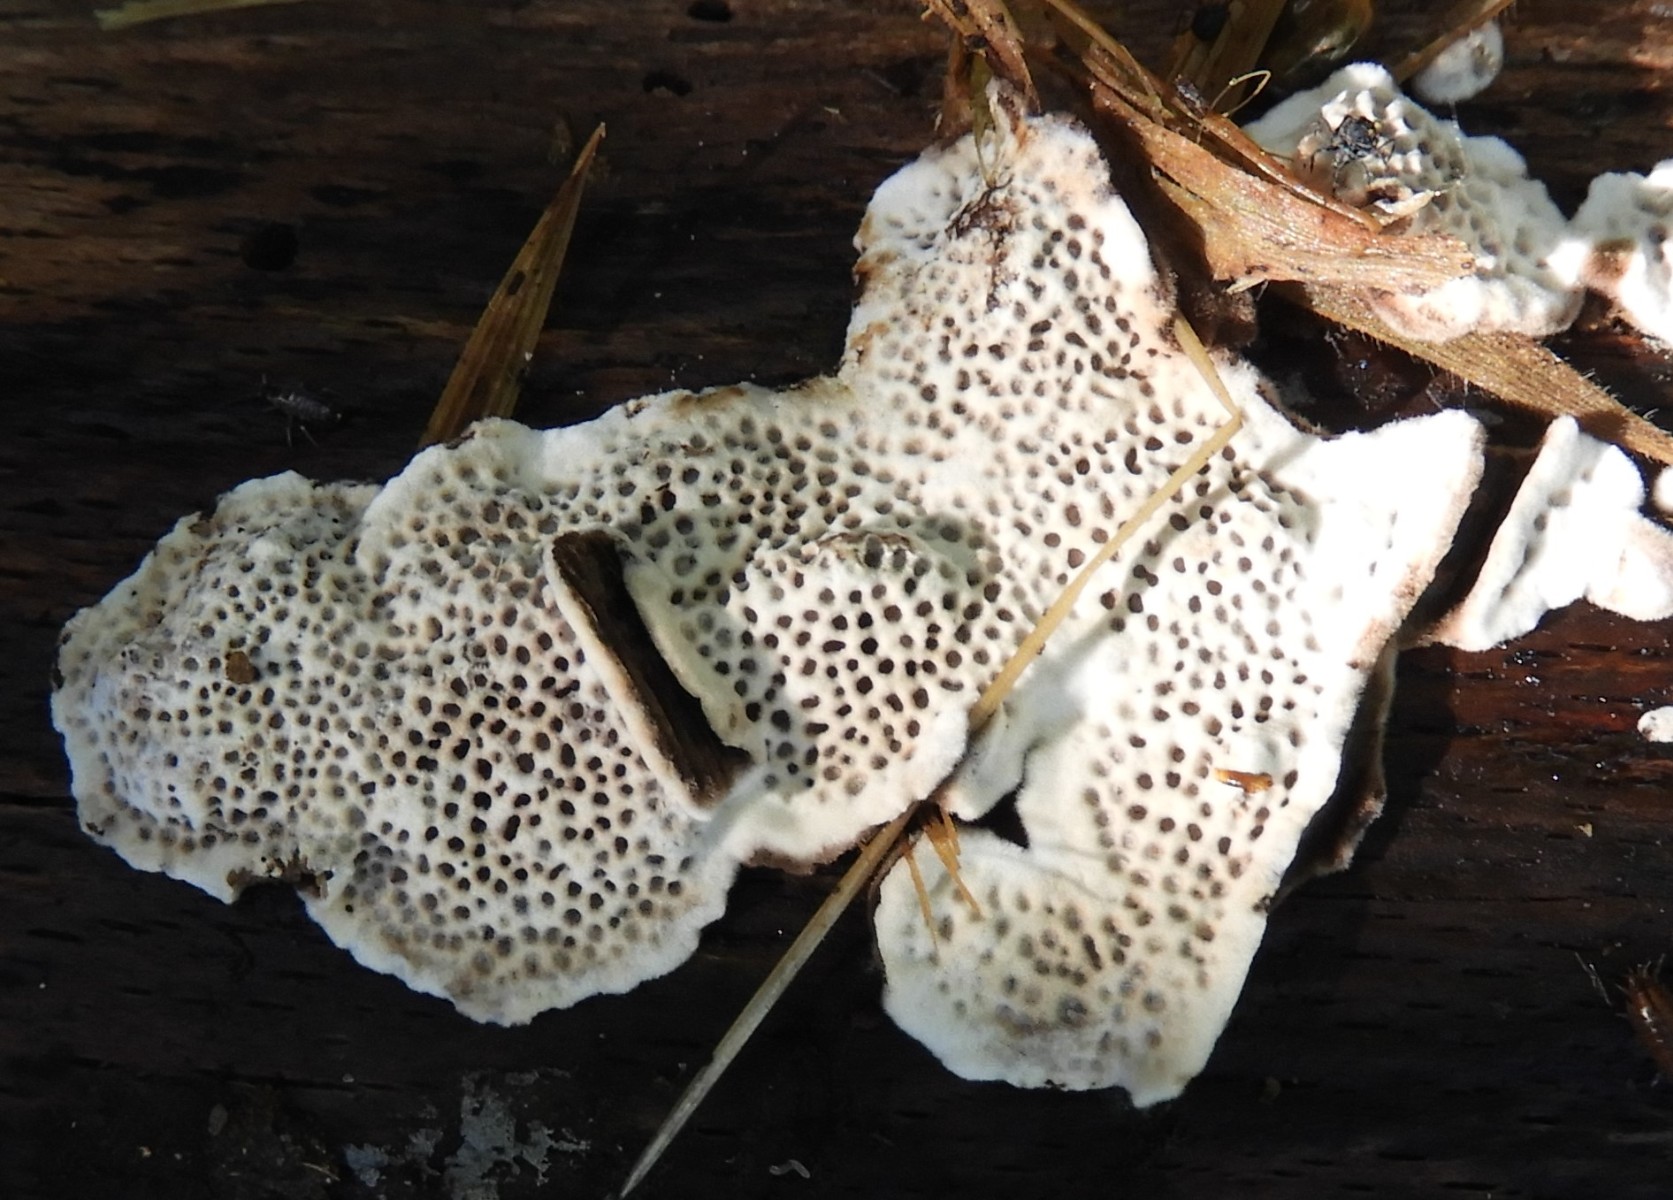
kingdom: Fungi
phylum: Basidiomycota
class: Agaricomycetes
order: Polyporales
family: Polyporaceae
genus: Podofomes
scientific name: Podofomes mollis
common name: blød begporesvamp
